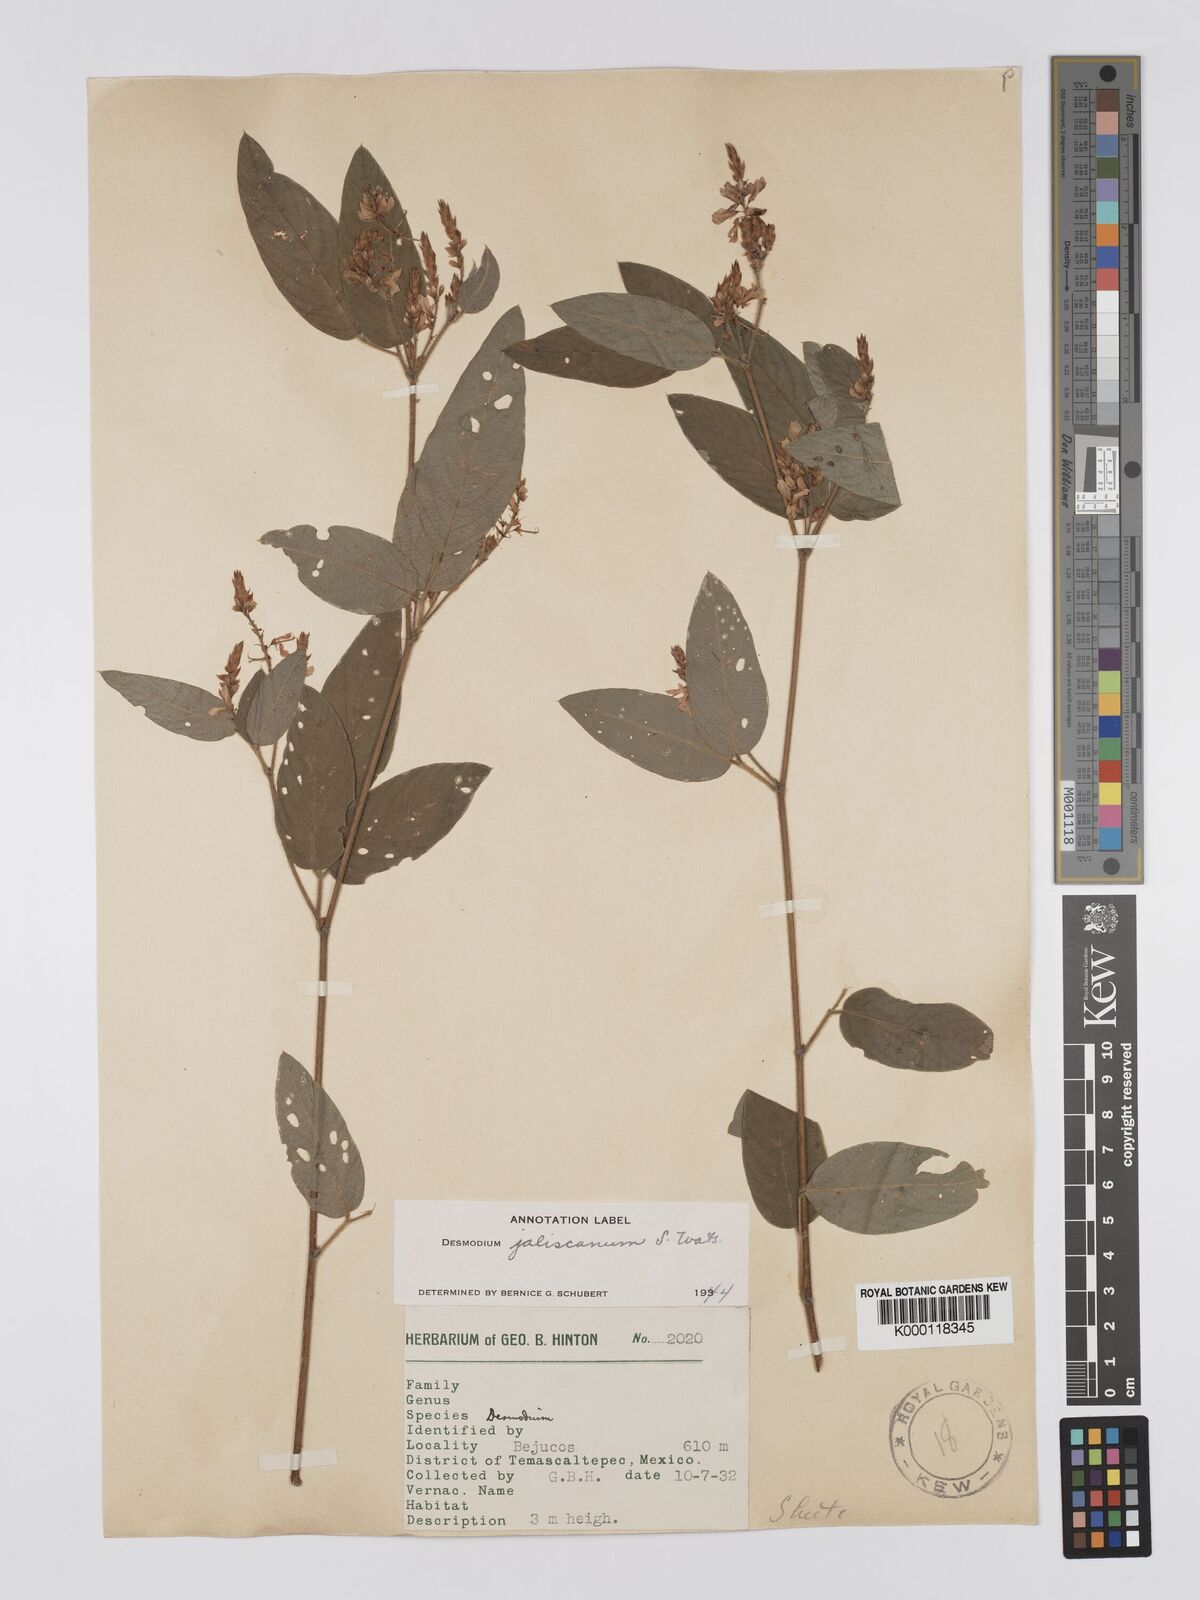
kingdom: Plantae
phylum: Tracheophyta
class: Magnoliopsida
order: Fabales
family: Fabaceae
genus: Desmodium
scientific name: Desmodium jaliscanum
